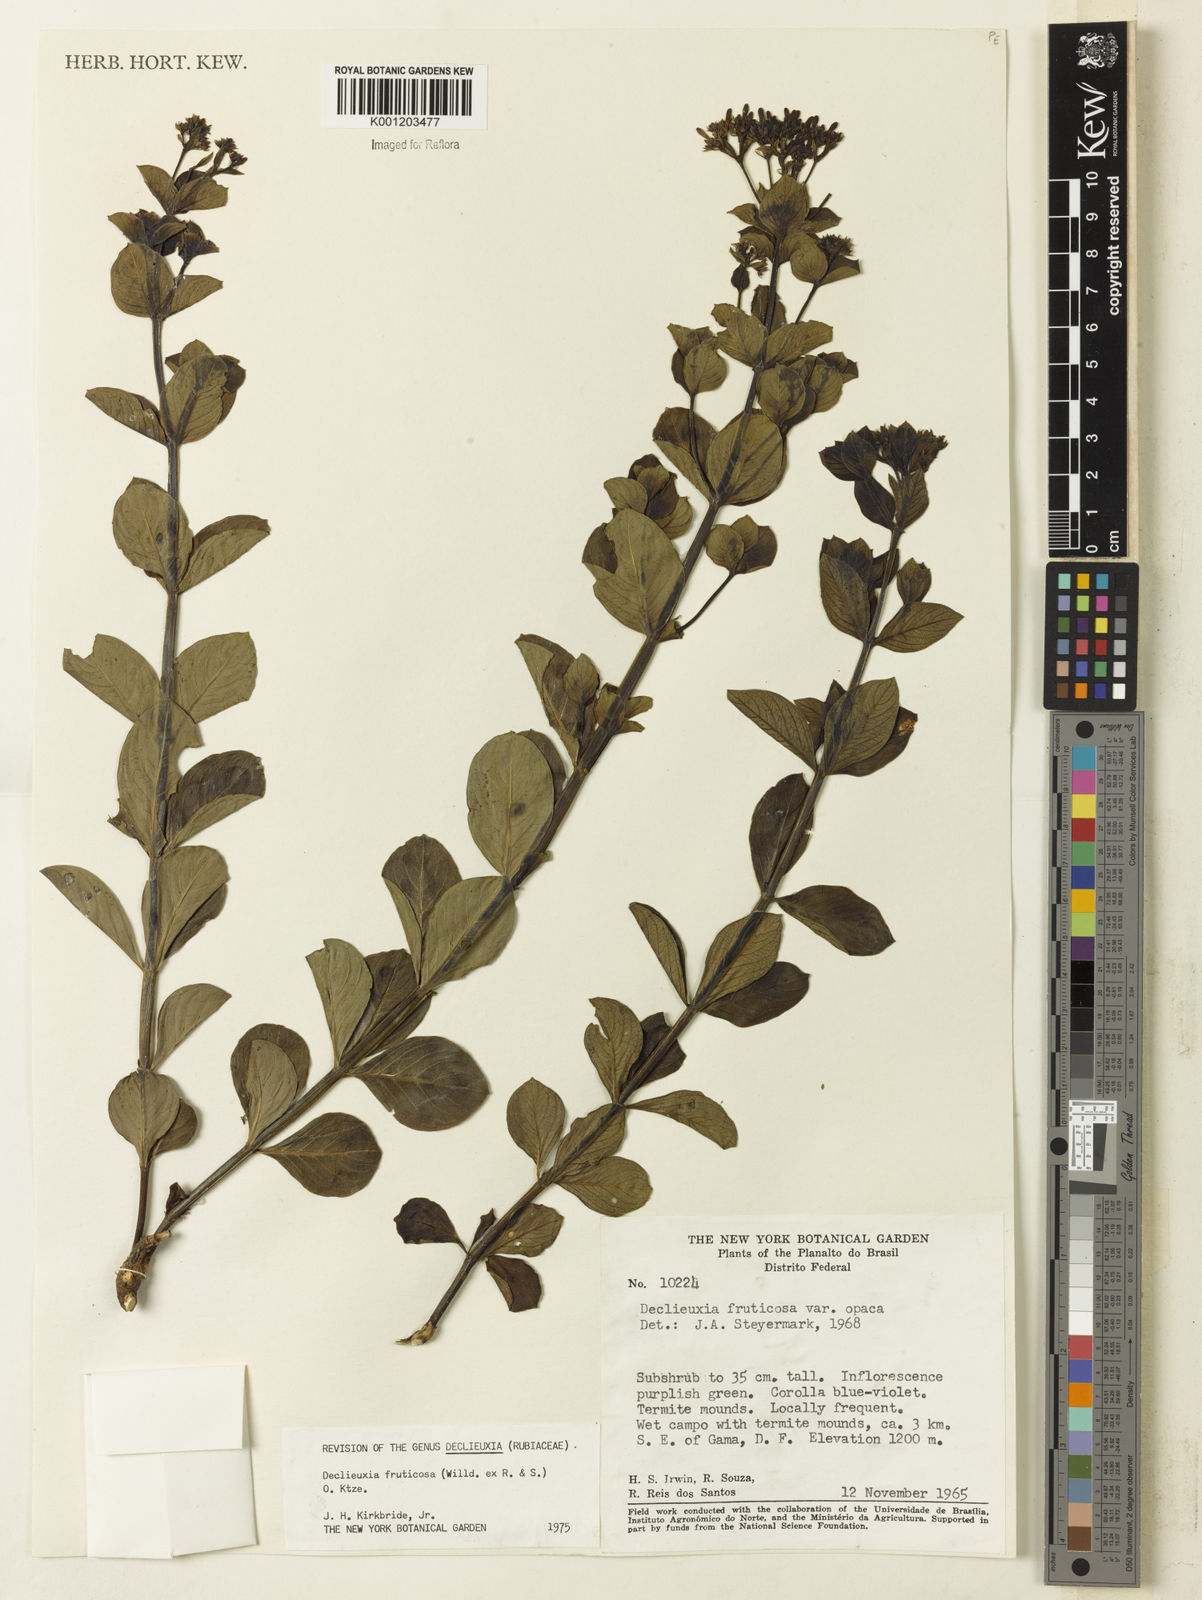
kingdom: Plantae
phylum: Tracheophyta
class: Magnoliopsida
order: Gentianales
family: Rubiaceae
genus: Declieuxia
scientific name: Declieuxia fruticosa
